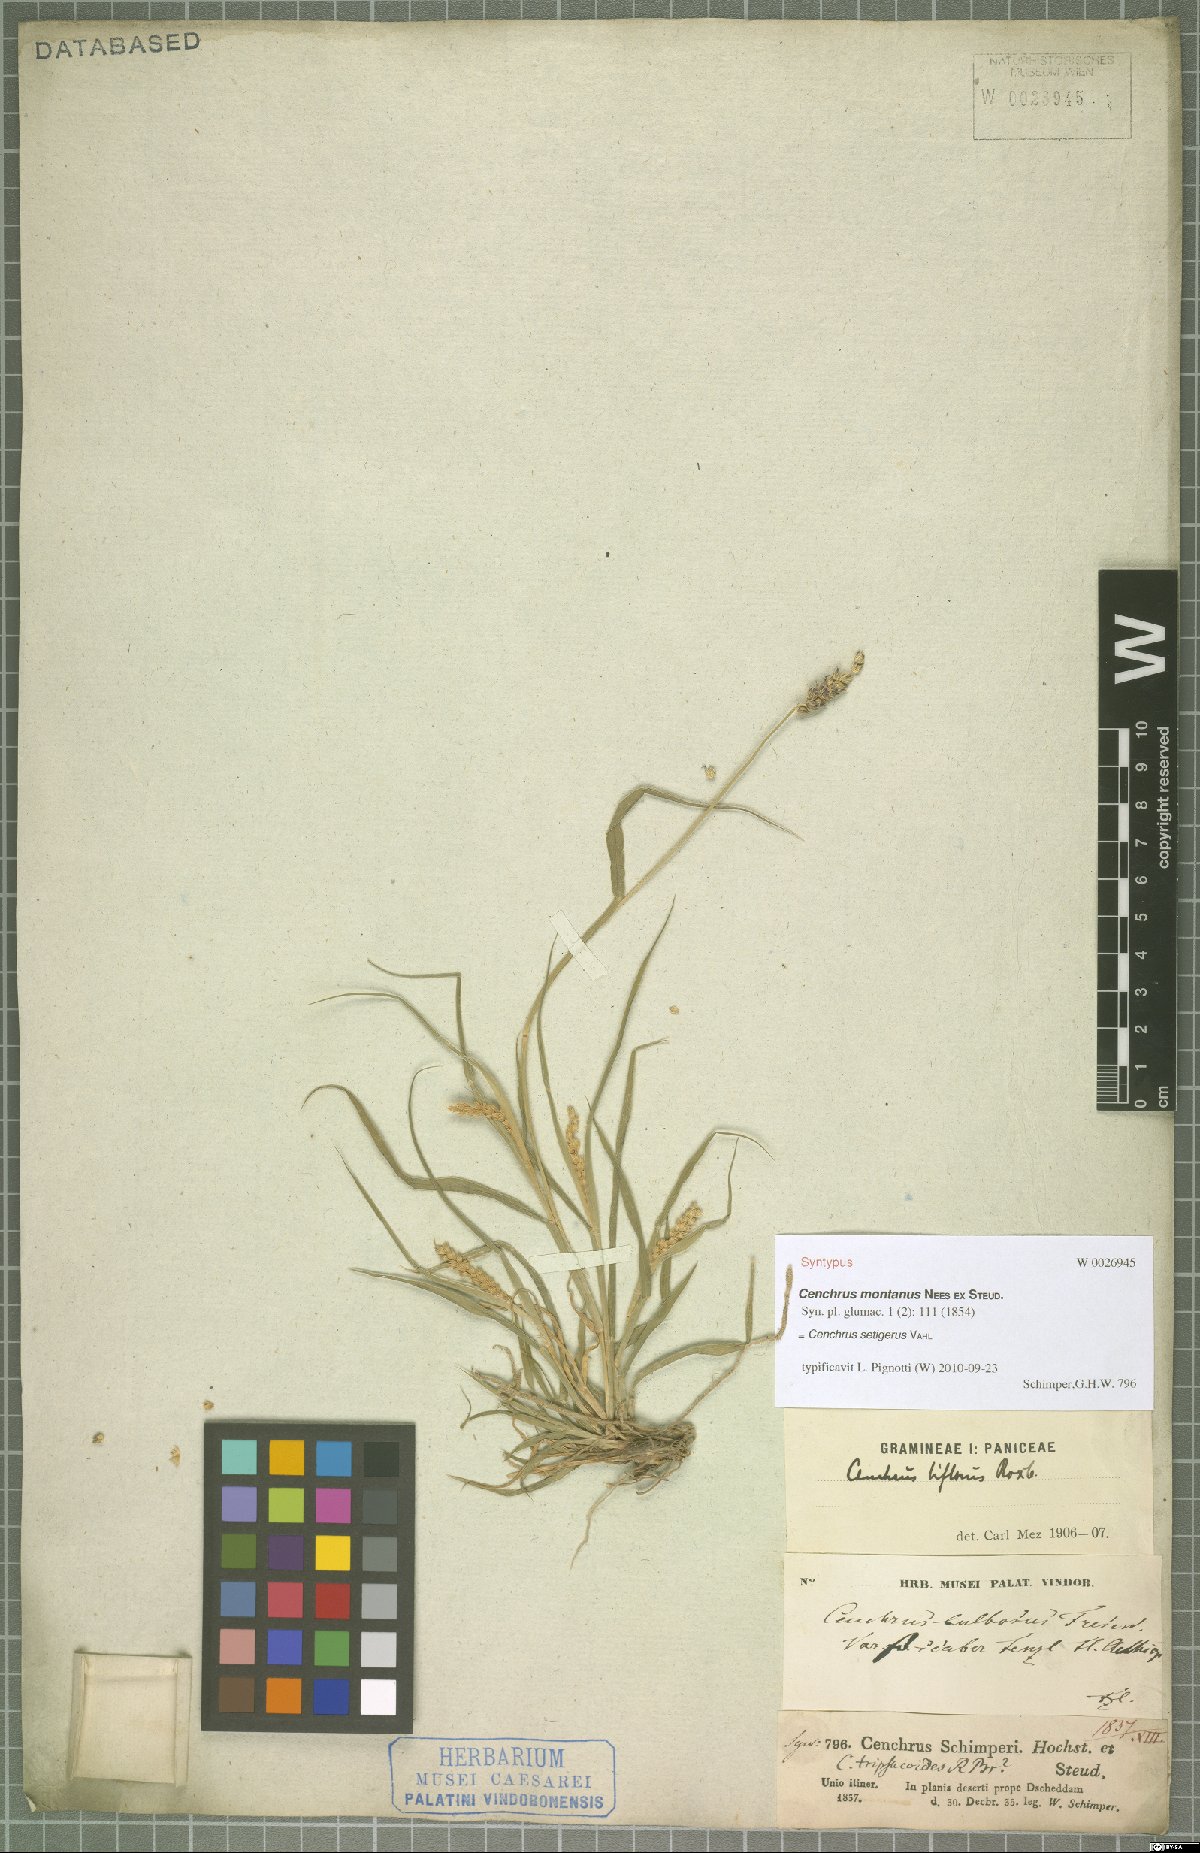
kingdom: Plantae
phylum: Tracheophyta
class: Liliopsida
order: Poales
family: Poaceae
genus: Cenchrus
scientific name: Cenchrus setigerus
